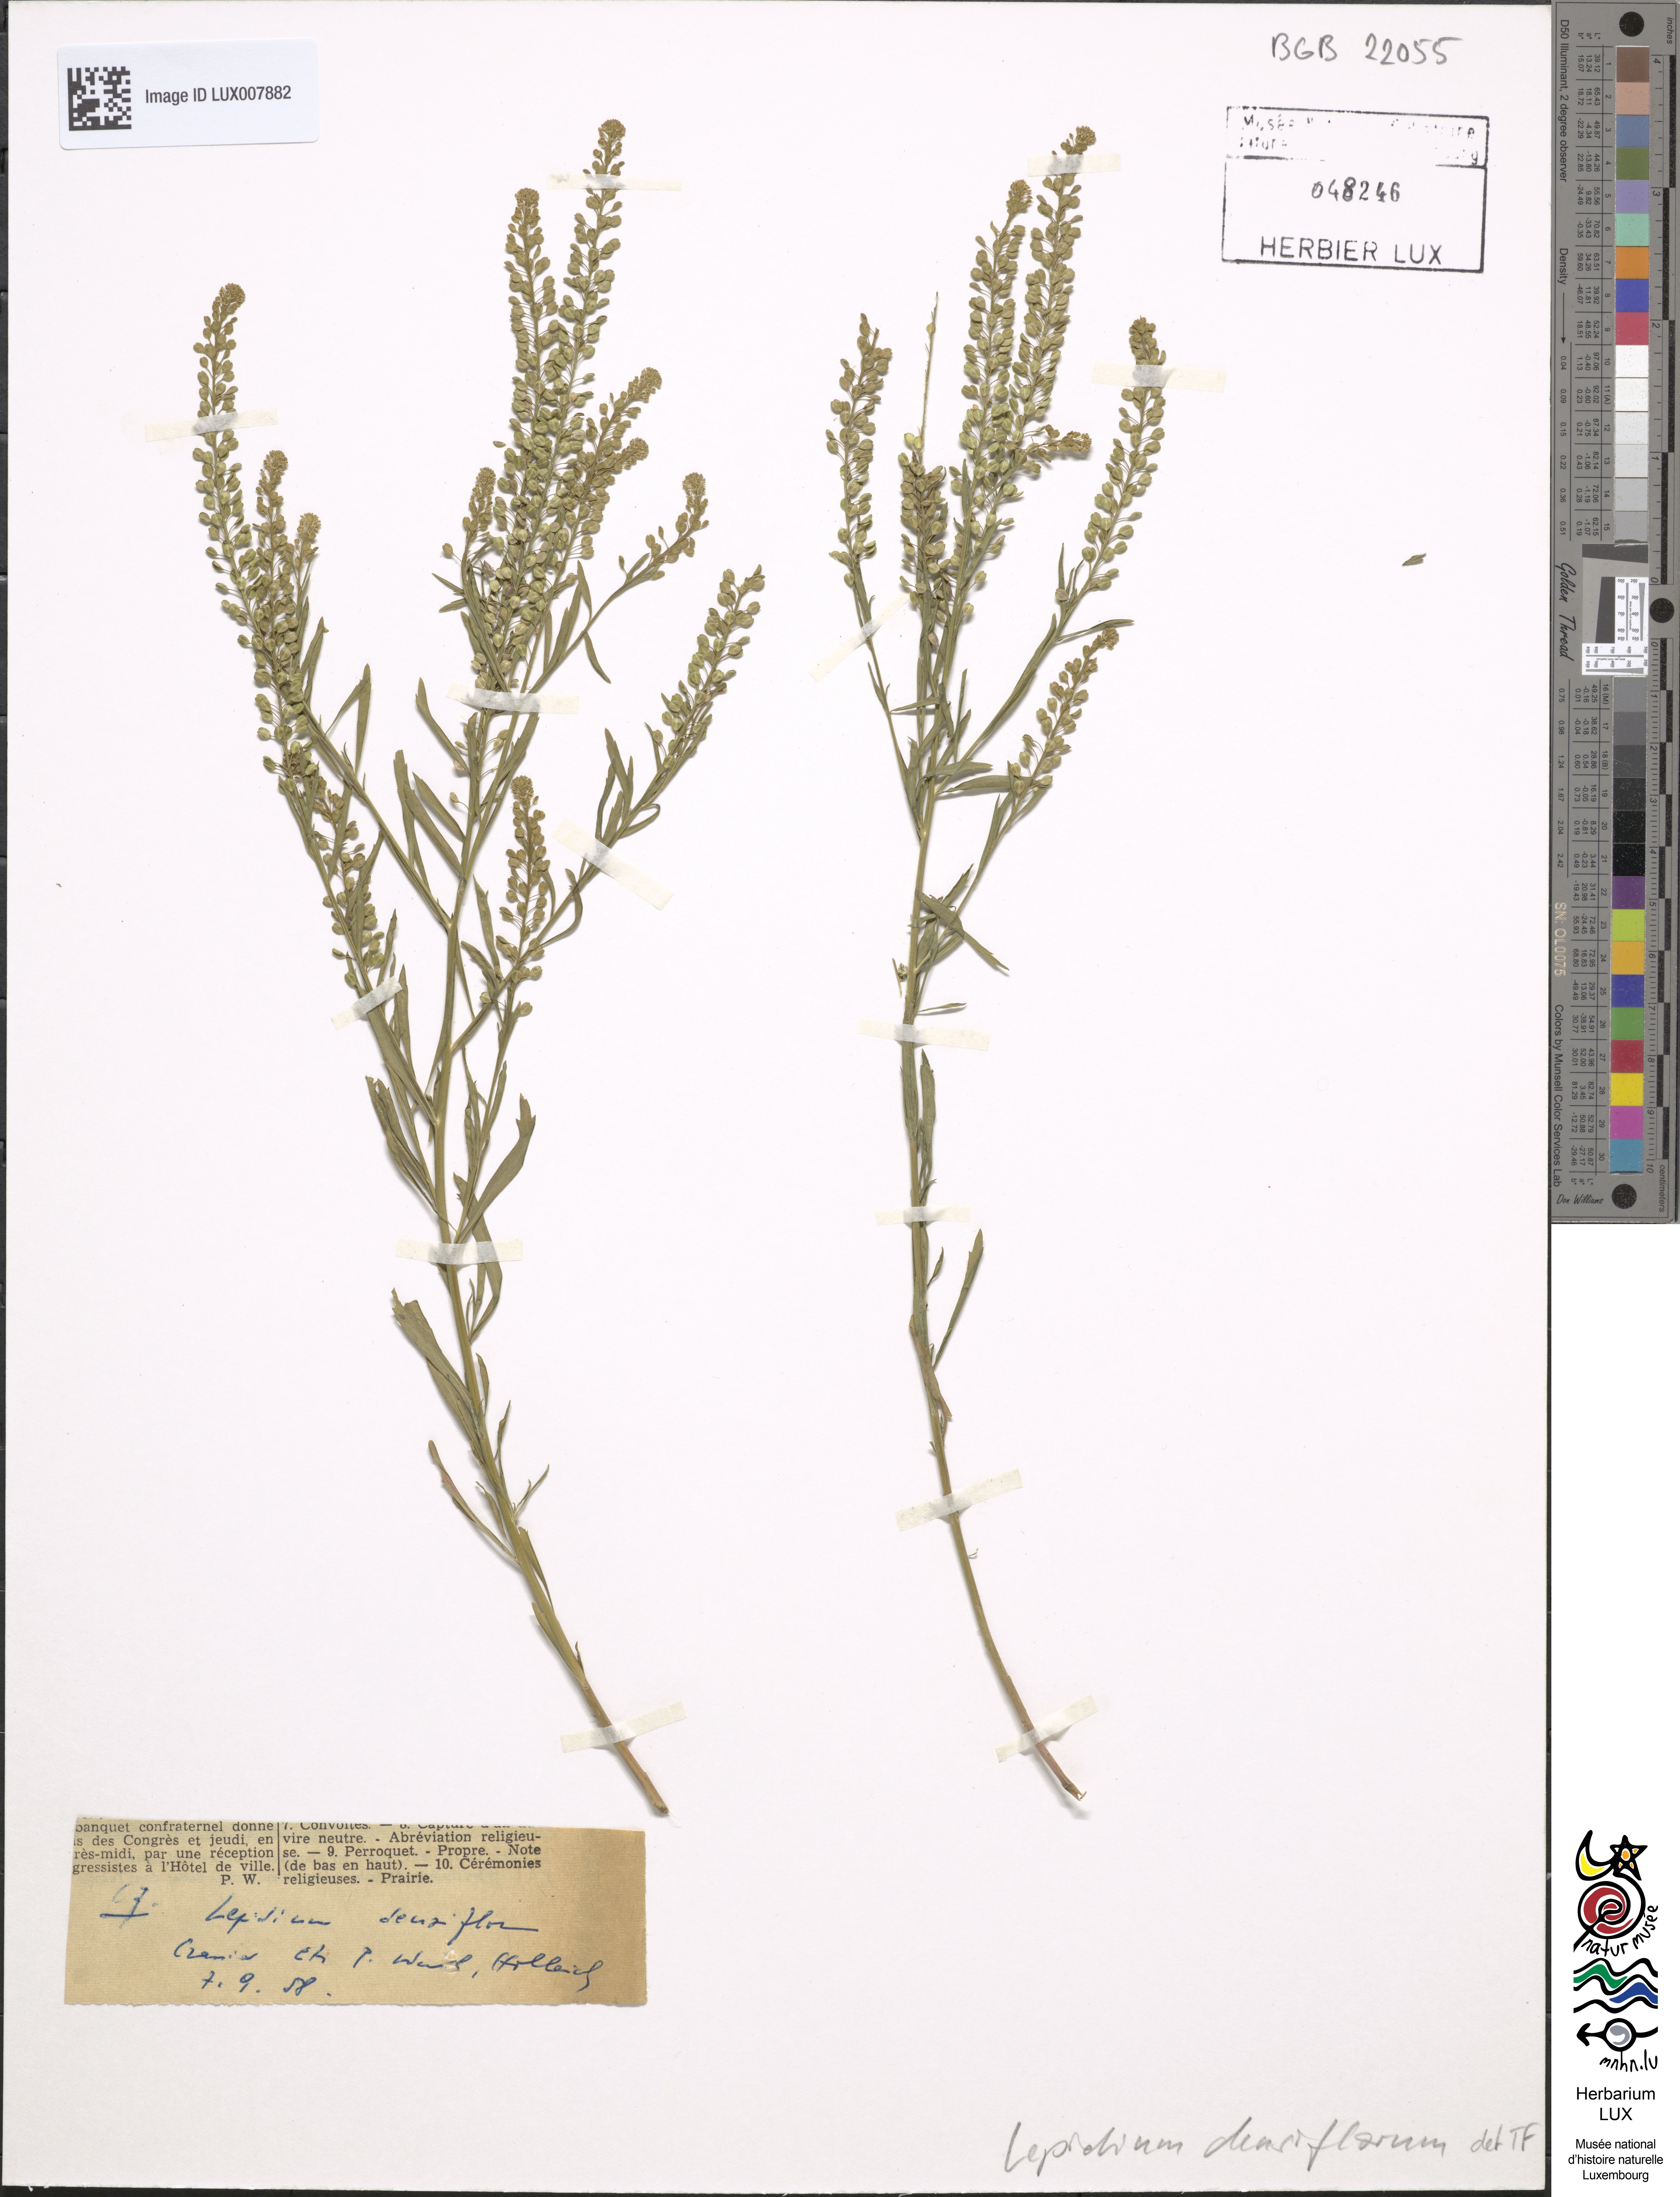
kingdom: Plantae
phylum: Tracheophyta
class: Magnoliopsida
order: Brassicales
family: Brassicaceae
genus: Lepidium
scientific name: Lepidium densiflorum
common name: Miner's pepperwort
